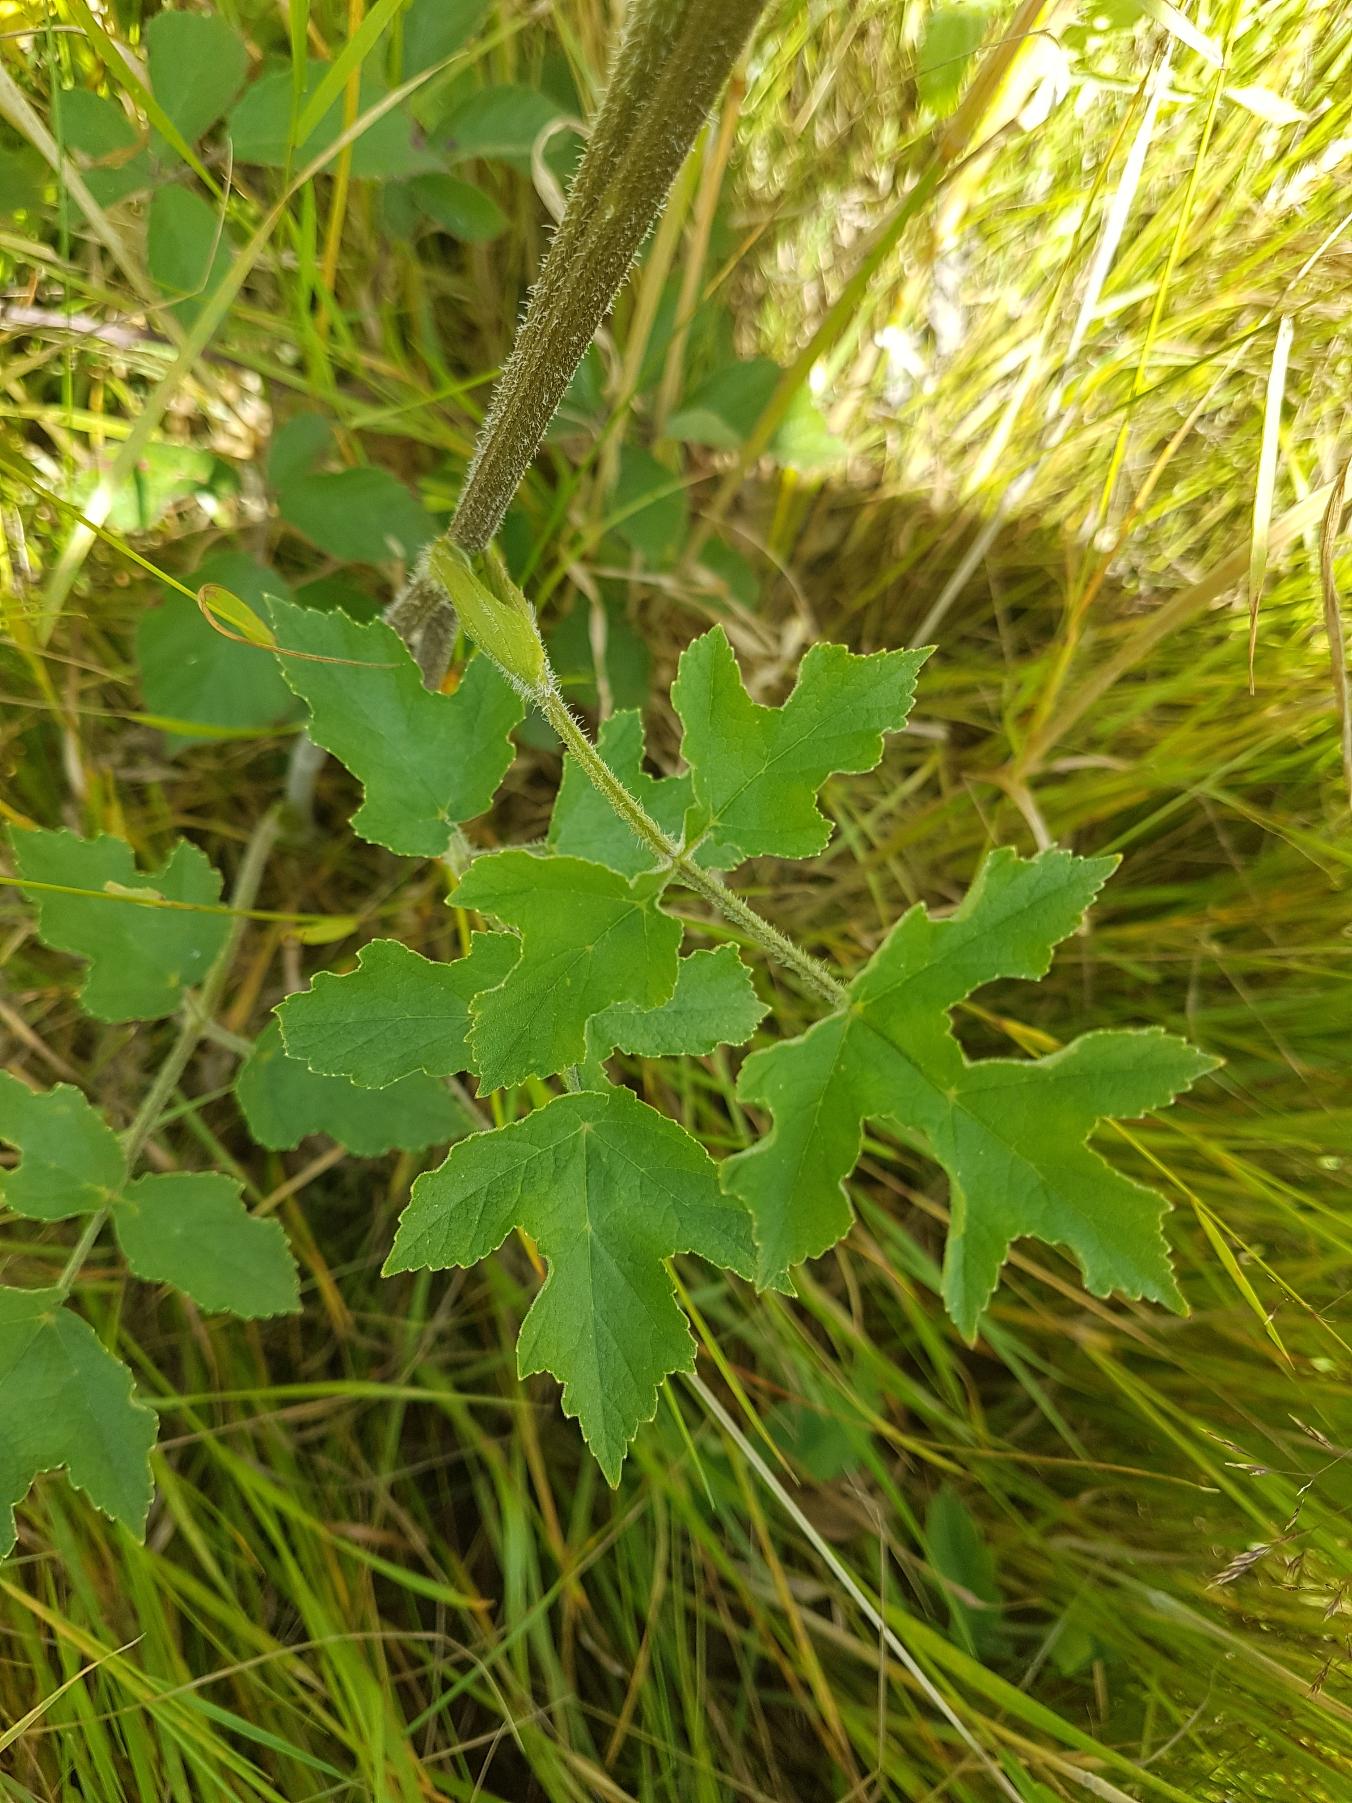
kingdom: Plantae
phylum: Tracheophyta
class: Magnoliopsida
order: Apiales
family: Apiaceae
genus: Heracleum
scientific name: Heracleum sphondylium
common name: Almindelig bjørneklo
